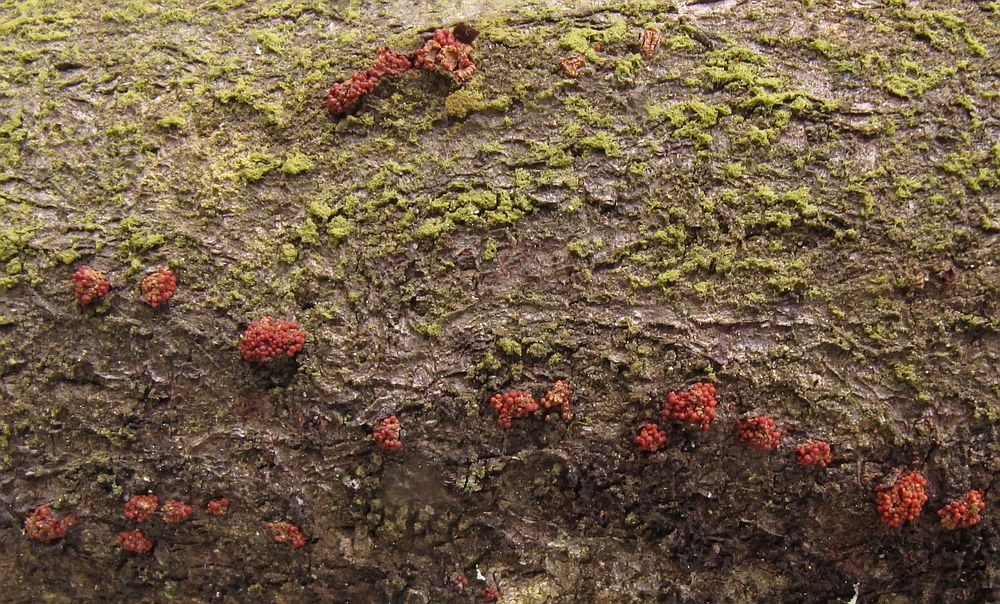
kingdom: Fungi
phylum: Ascomycota
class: Sordariomycetes
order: Hypocreales
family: Nectriaceae
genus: Neonectria
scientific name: Neonectria punicea
